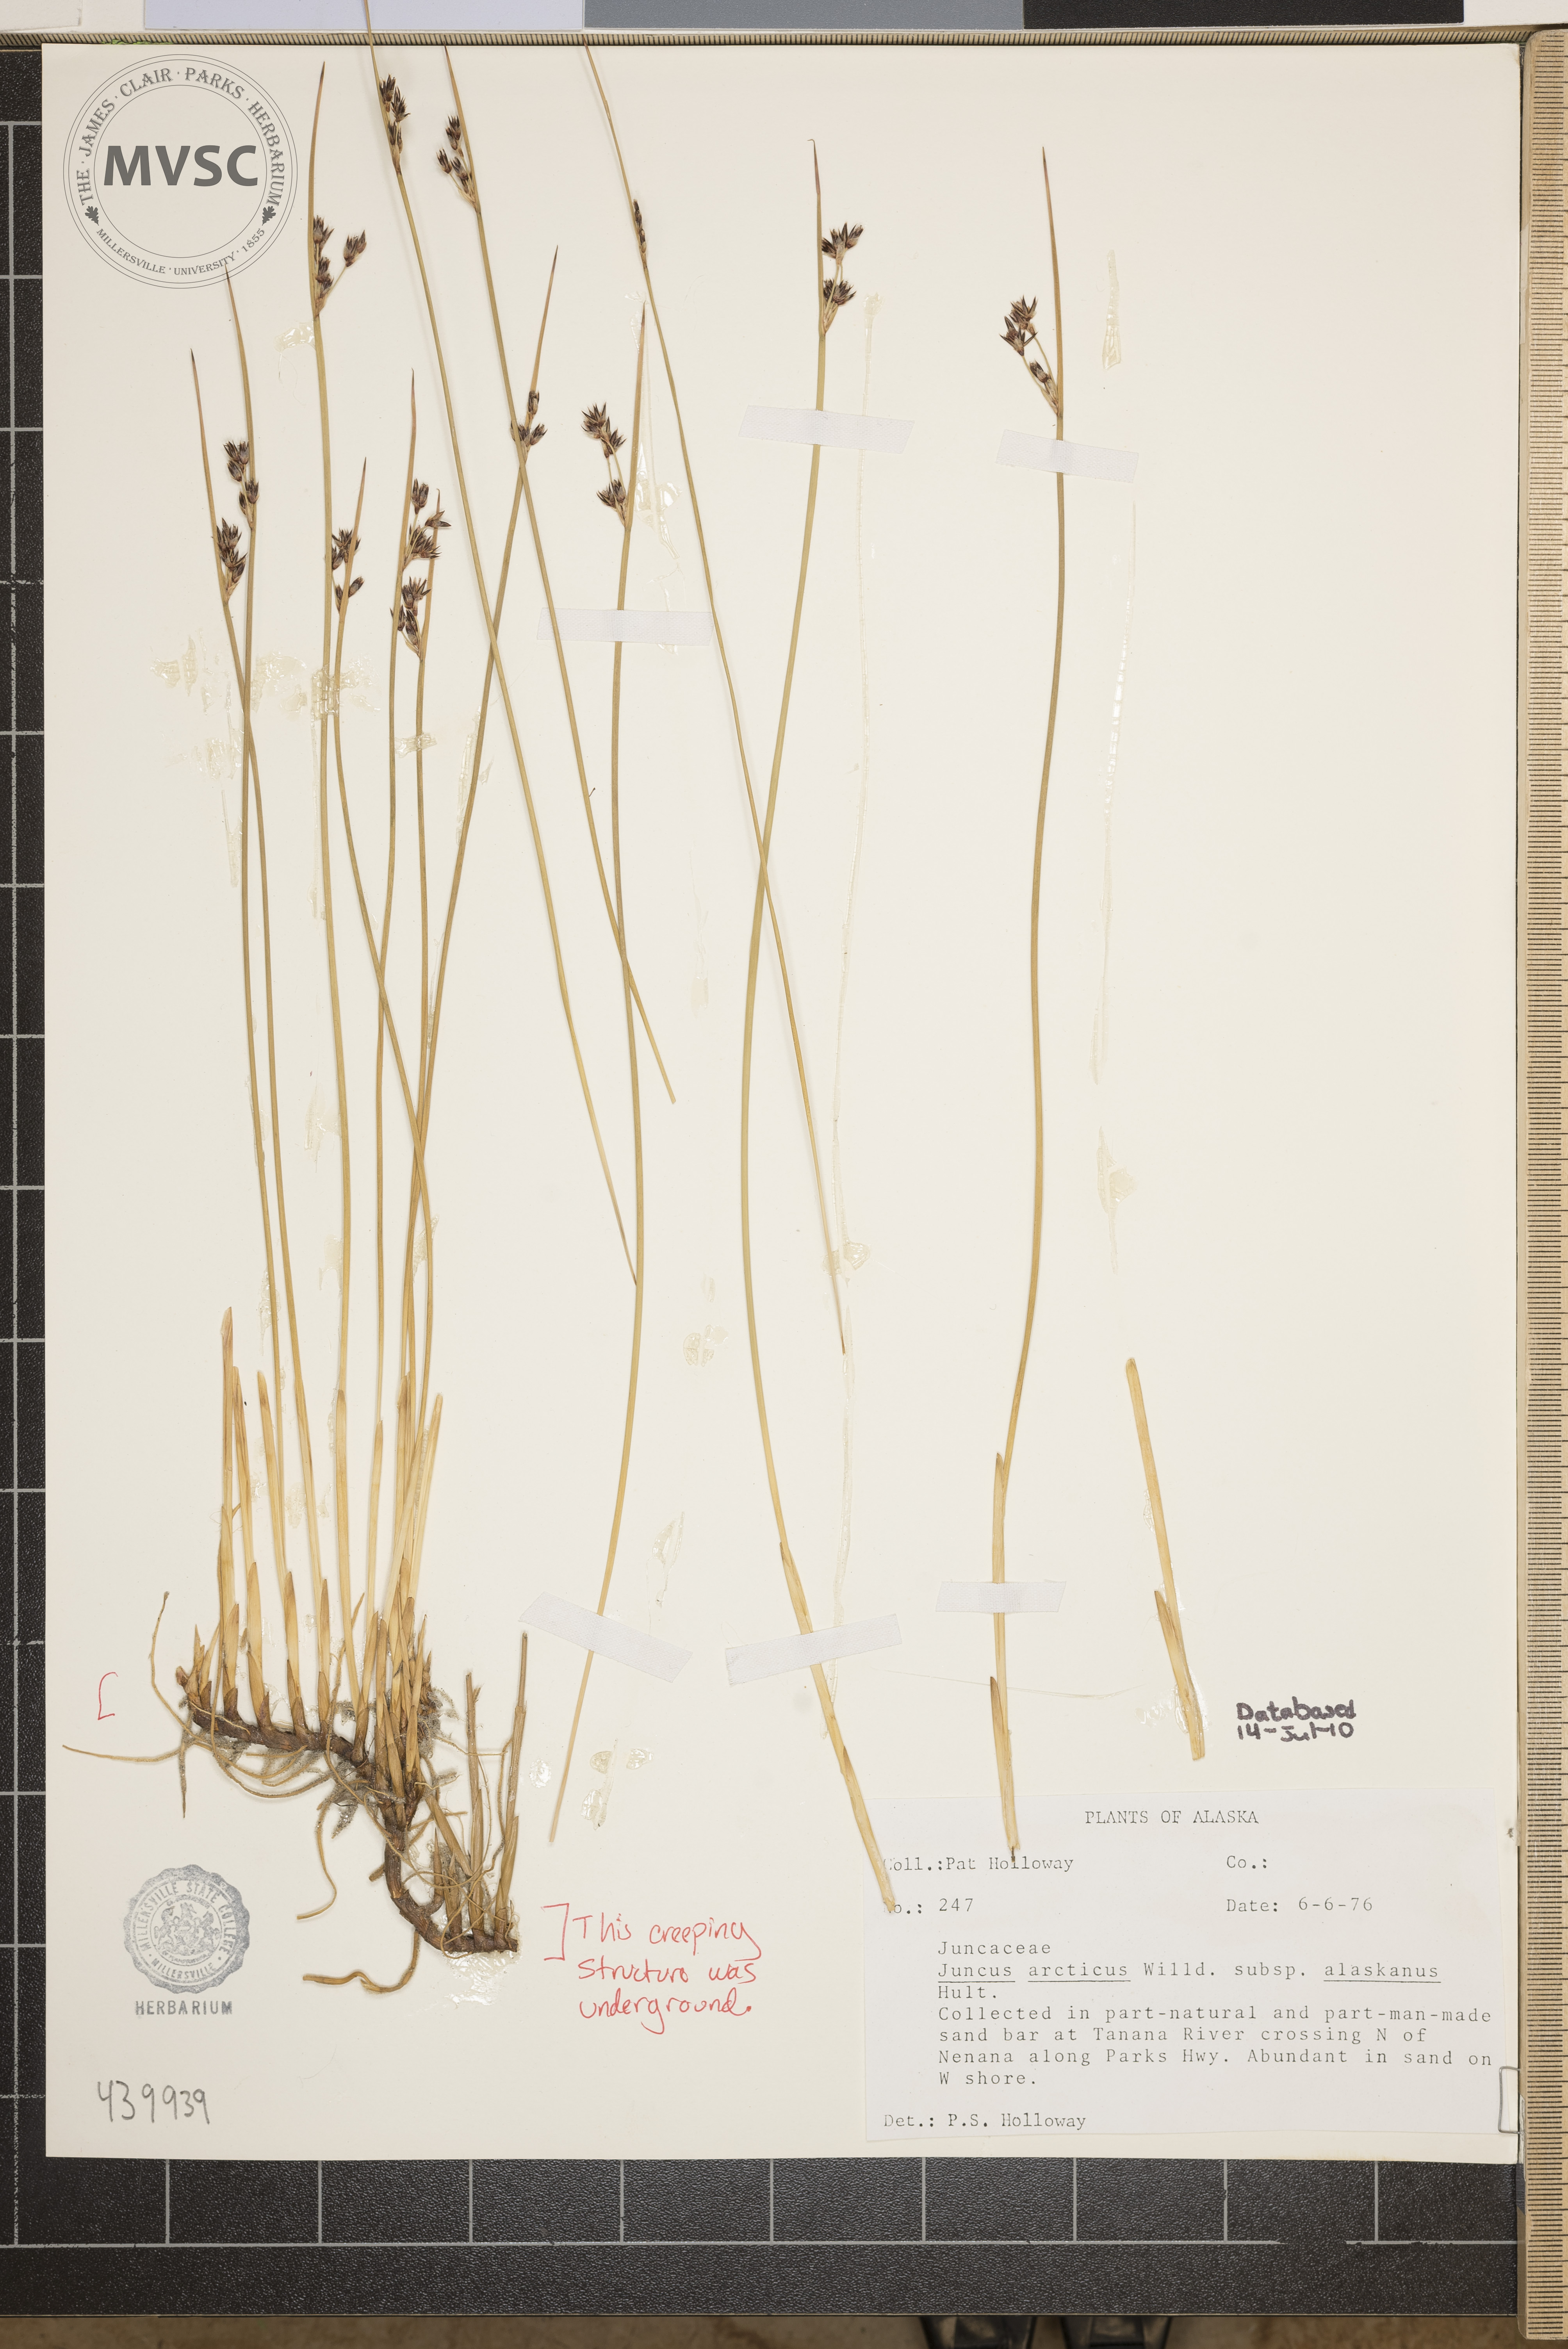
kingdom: Plantae
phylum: Tracheophyta
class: Liliopsida
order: Poales
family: Juncaceae
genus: Juncus
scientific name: Juncus arcticus
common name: Arctic rush
